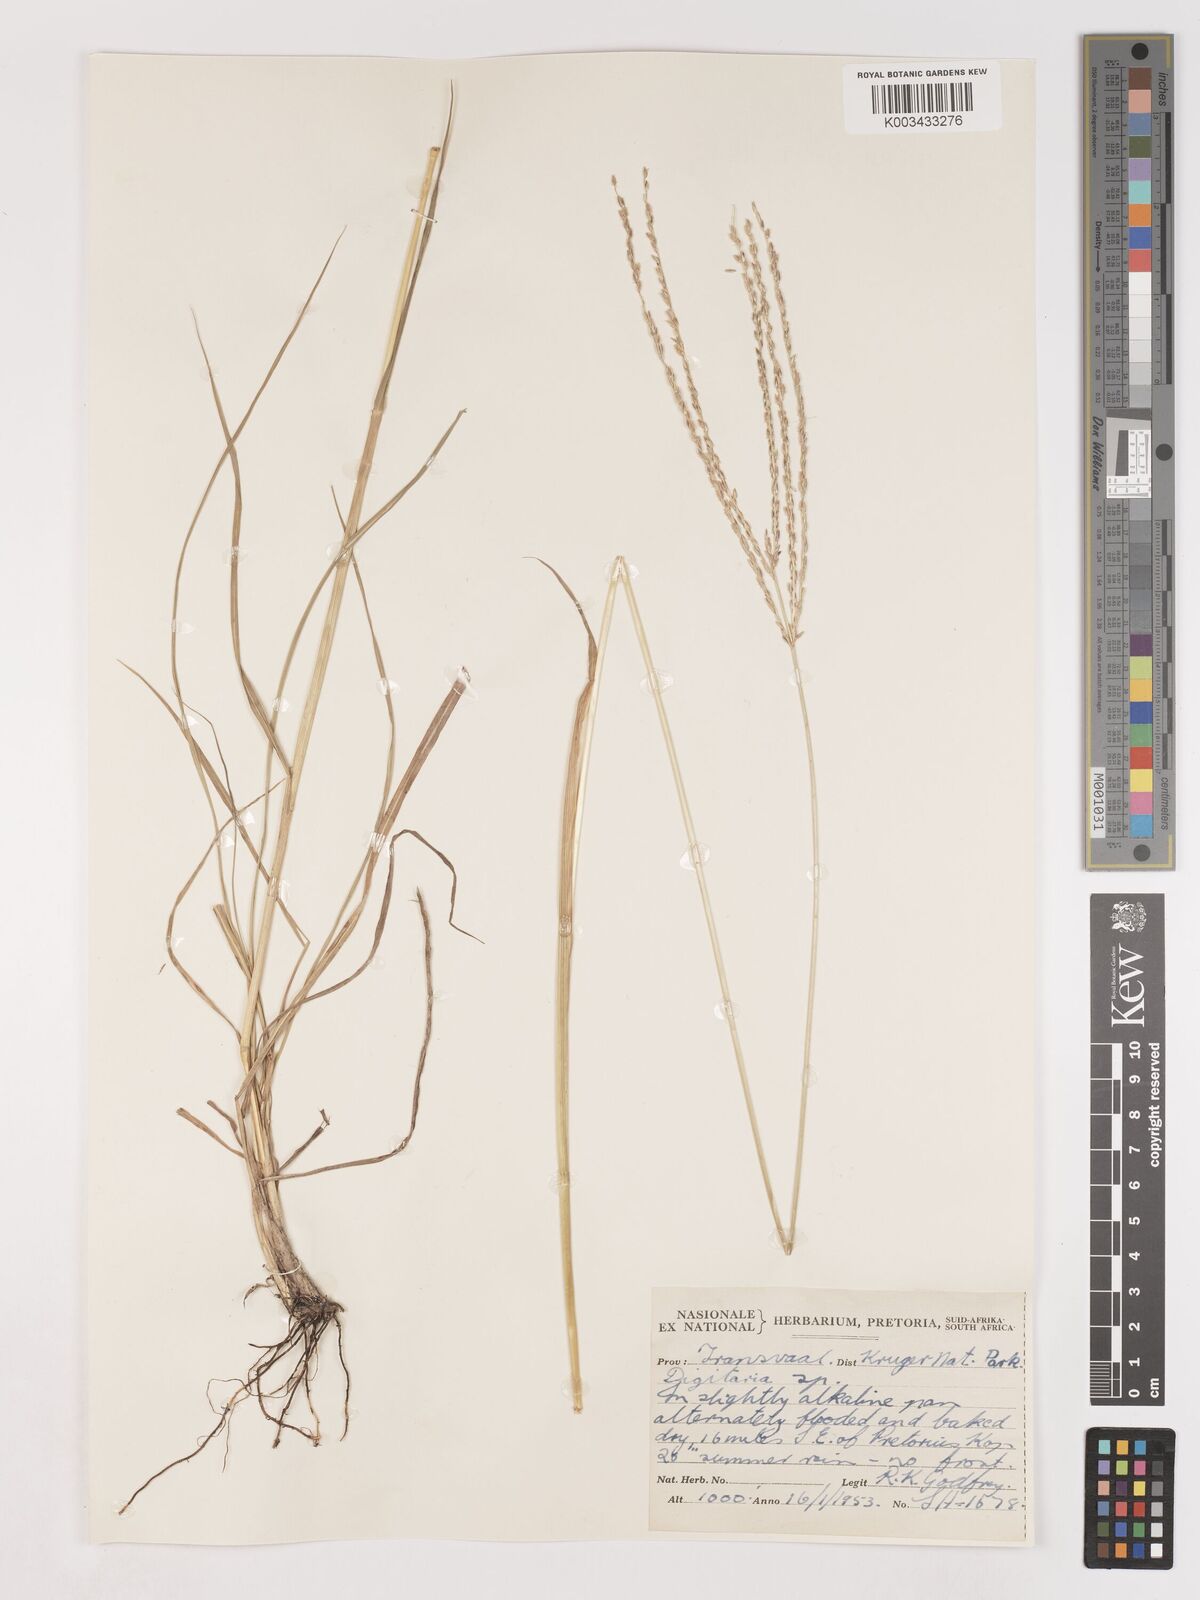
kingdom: Plantae
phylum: Tracheophyta
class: Liliopsida
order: Poales
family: Poaceae
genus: Digitaria
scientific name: Digitaria eriantha
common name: Digitgrass
